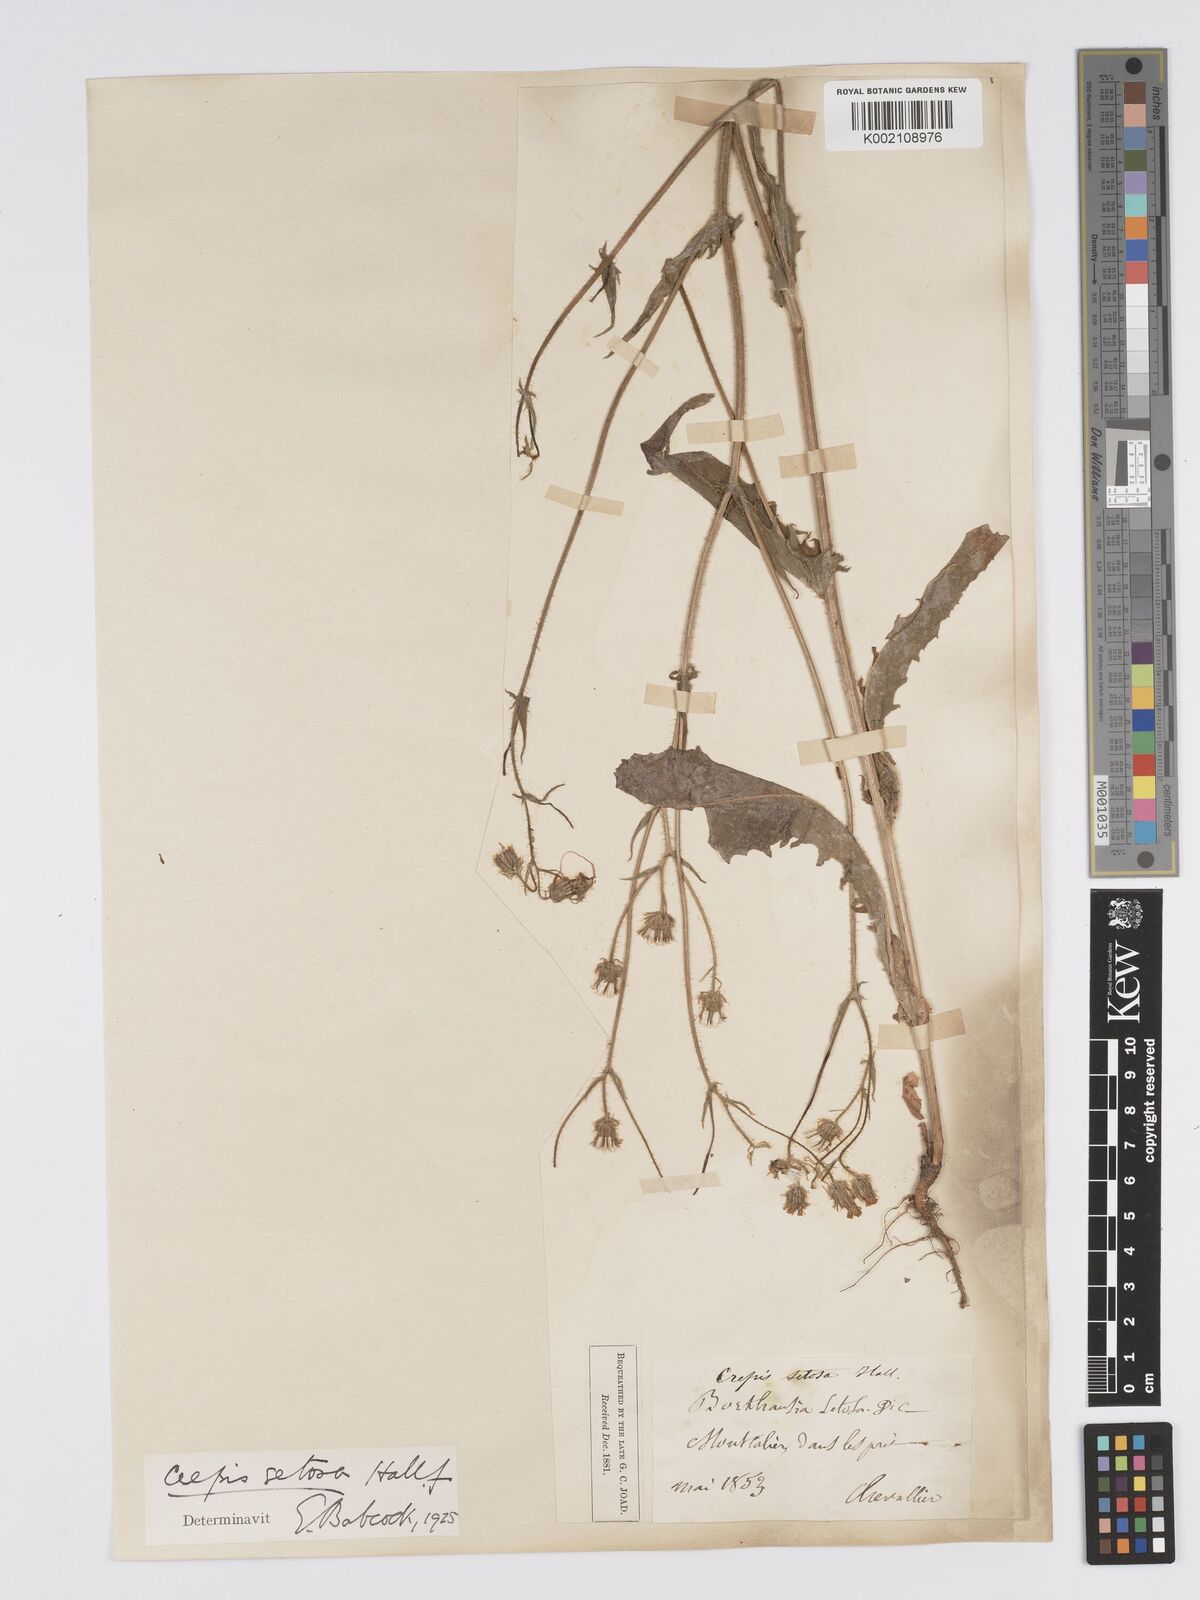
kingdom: Plantae
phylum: Tracheophyta
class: Magnoliopsida
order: Asterales
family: Asteraceae
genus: Crepis
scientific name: Crepis setosa
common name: Bristly hawk's-beard
